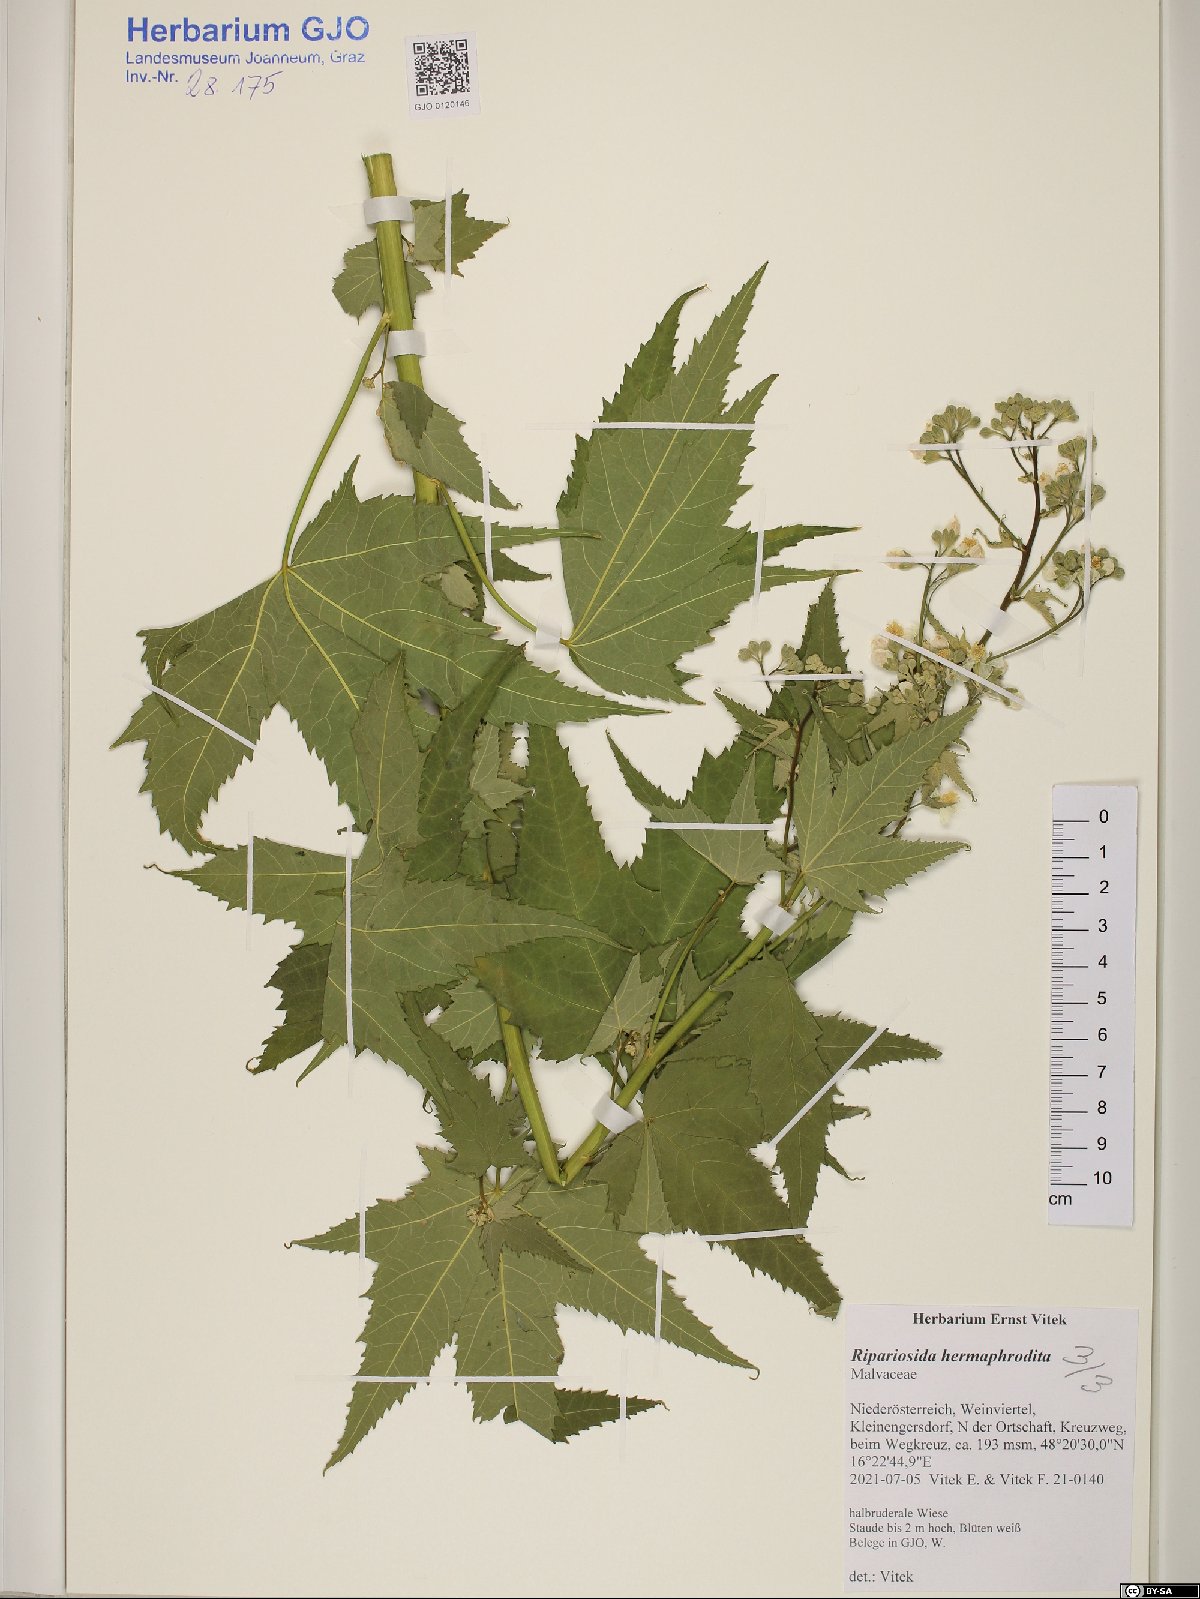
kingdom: Plantae
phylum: Tracheophyta
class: Magnoliopsida
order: Malvales
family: Malvaceae
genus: Ripariosida
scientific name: Ripariosida hermaphrodita
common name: Virginia fanpetals
